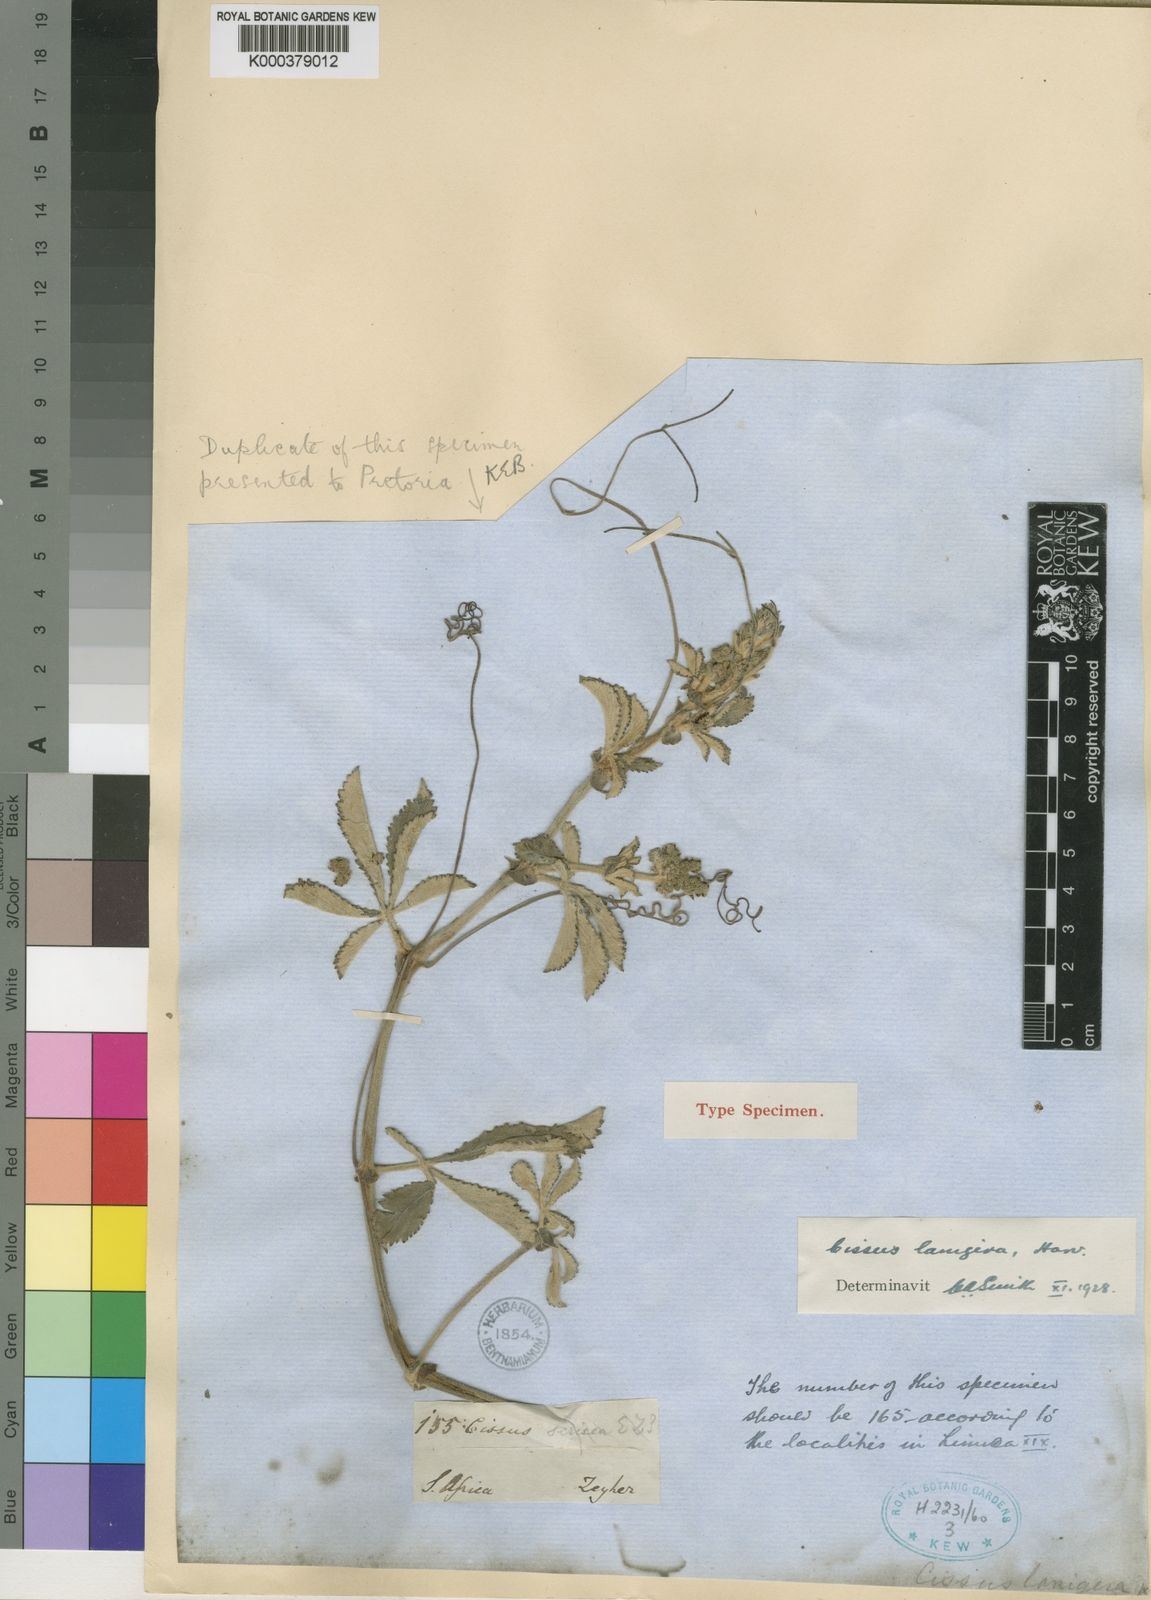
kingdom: Plantae
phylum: Tracheophyta
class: Magnoliopsida
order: Vitales
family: Vitaceae
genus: Cyphostemma
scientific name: Cyphostemma
